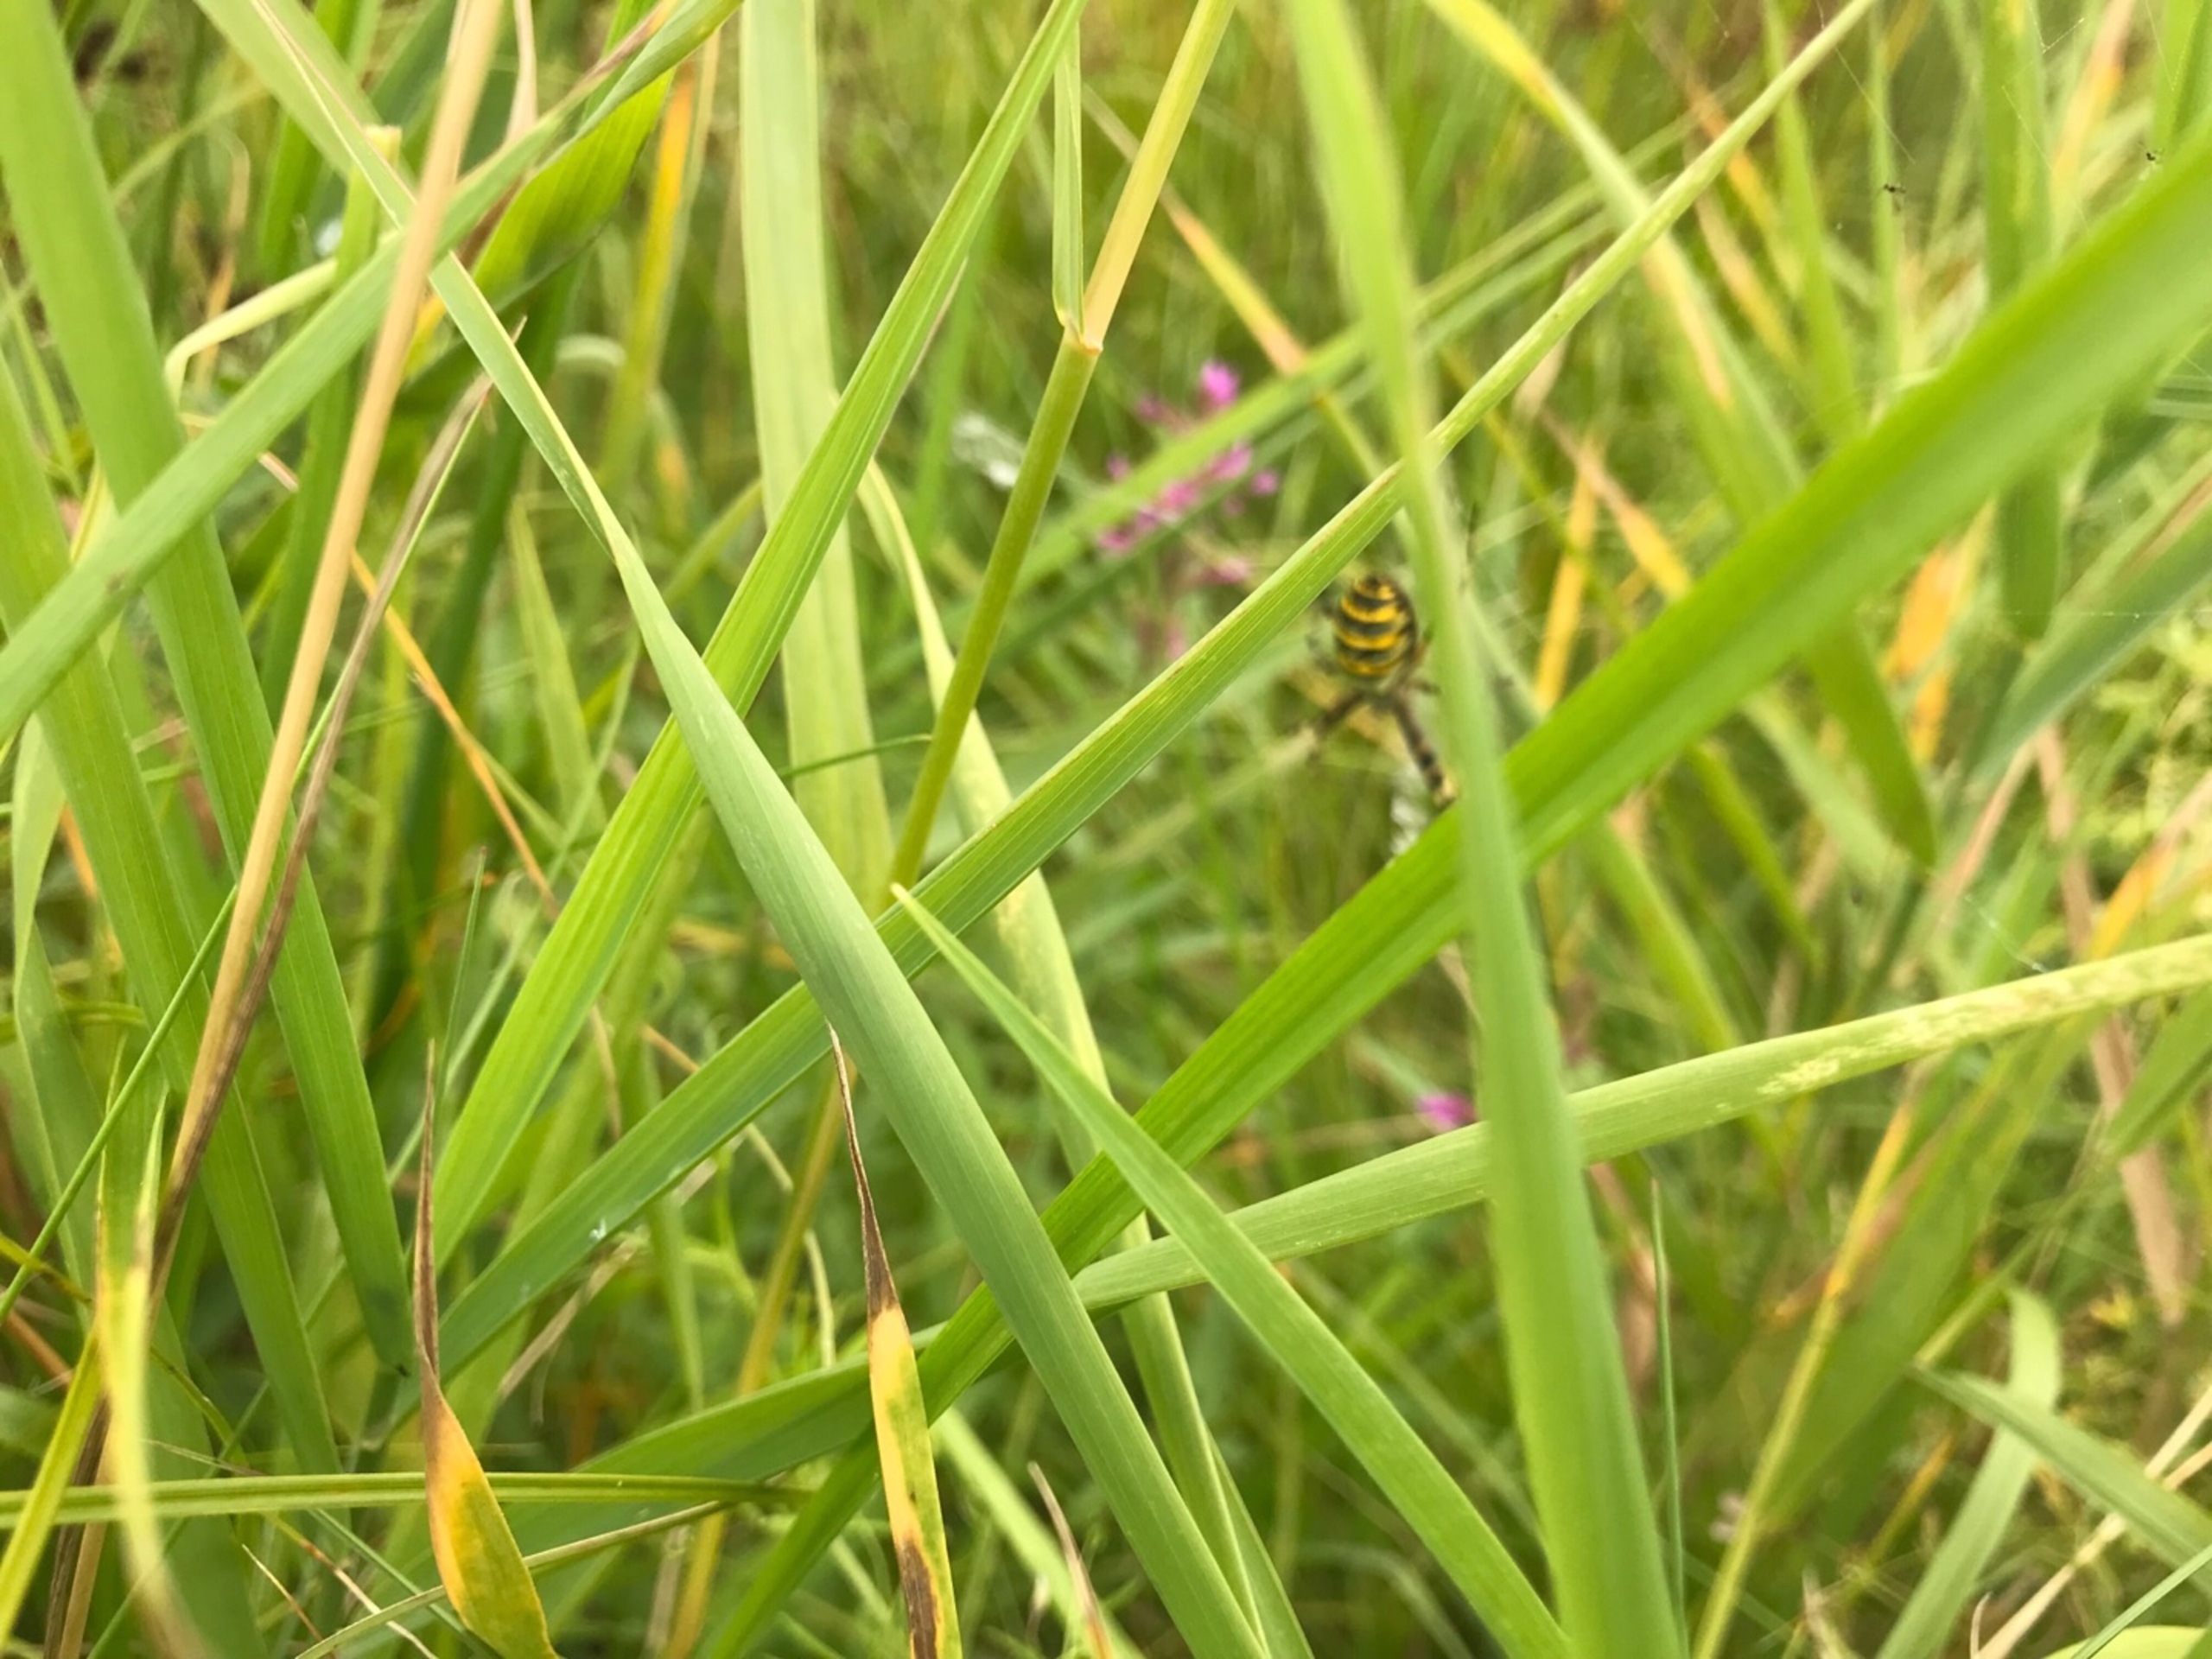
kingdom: Animalia
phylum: Arthropoda
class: Arachnida
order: Araneae
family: Araneidae
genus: Argiope
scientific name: Argiope bruennichi
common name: Hvepseedderkop
